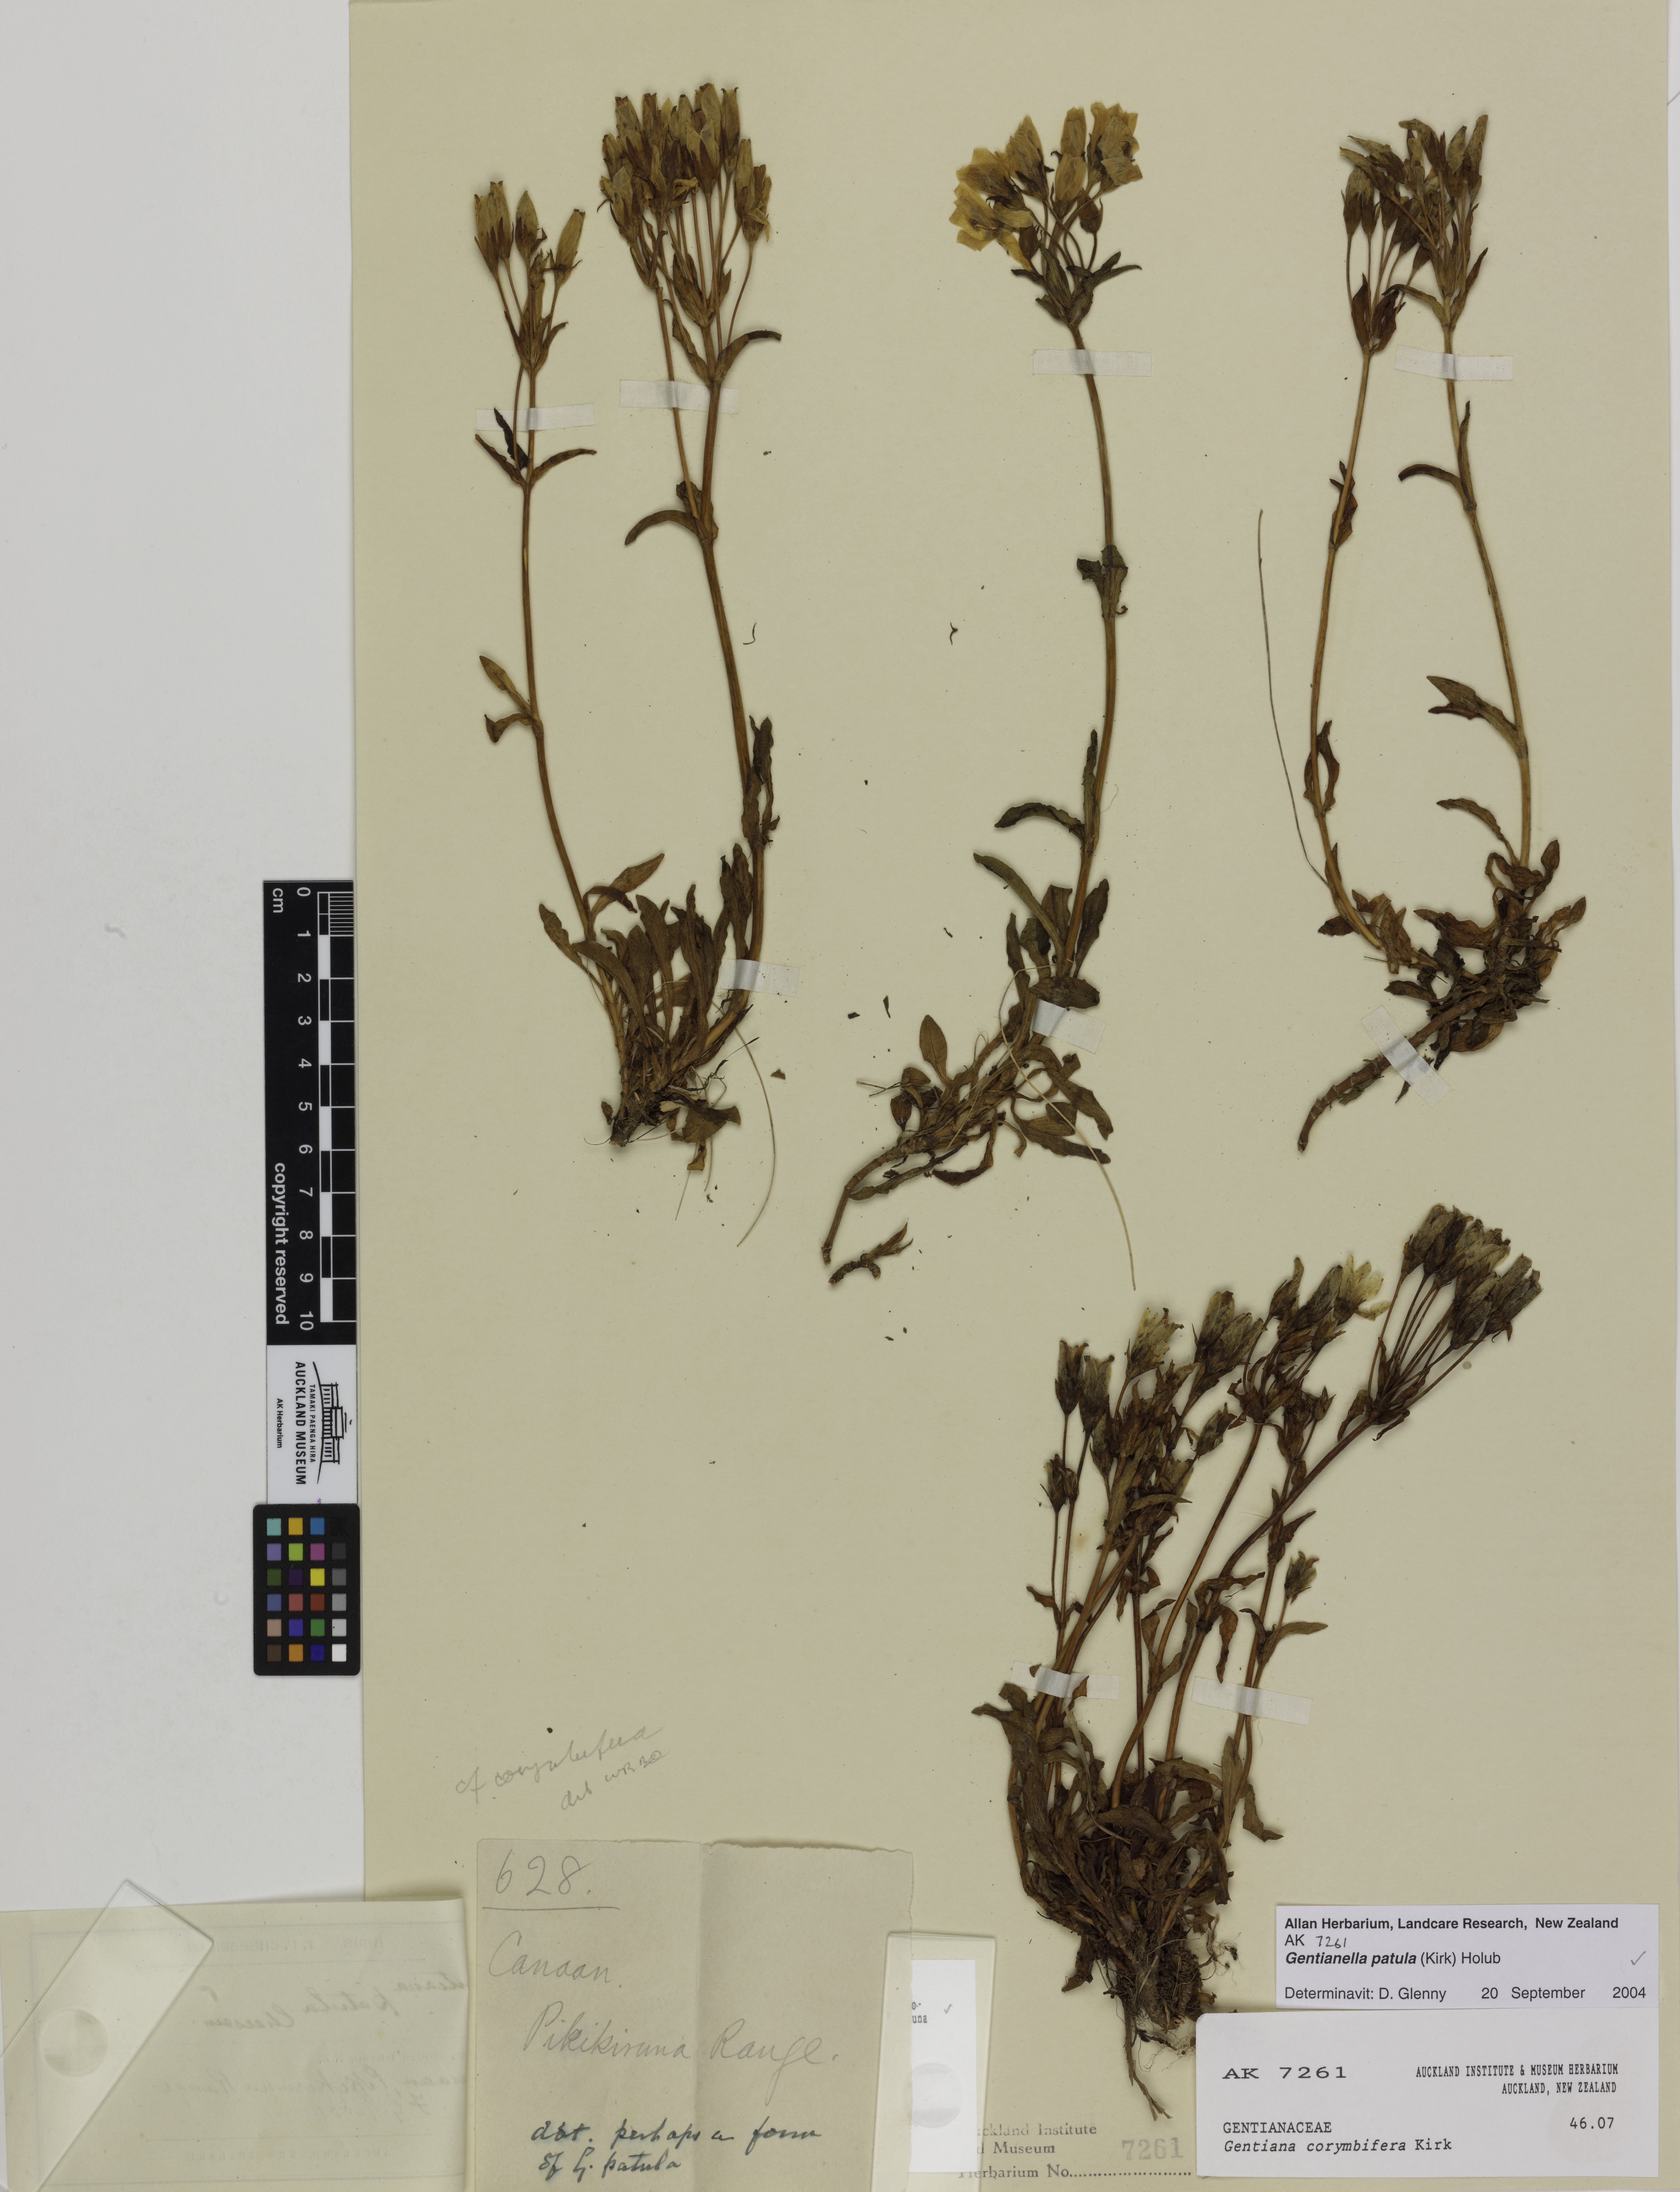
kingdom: Plantae
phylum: Tracheophyta
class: Magnoliopsida
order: Gentianales
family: Gentianaceae
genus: Gentianella
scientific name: Gentianella patula
